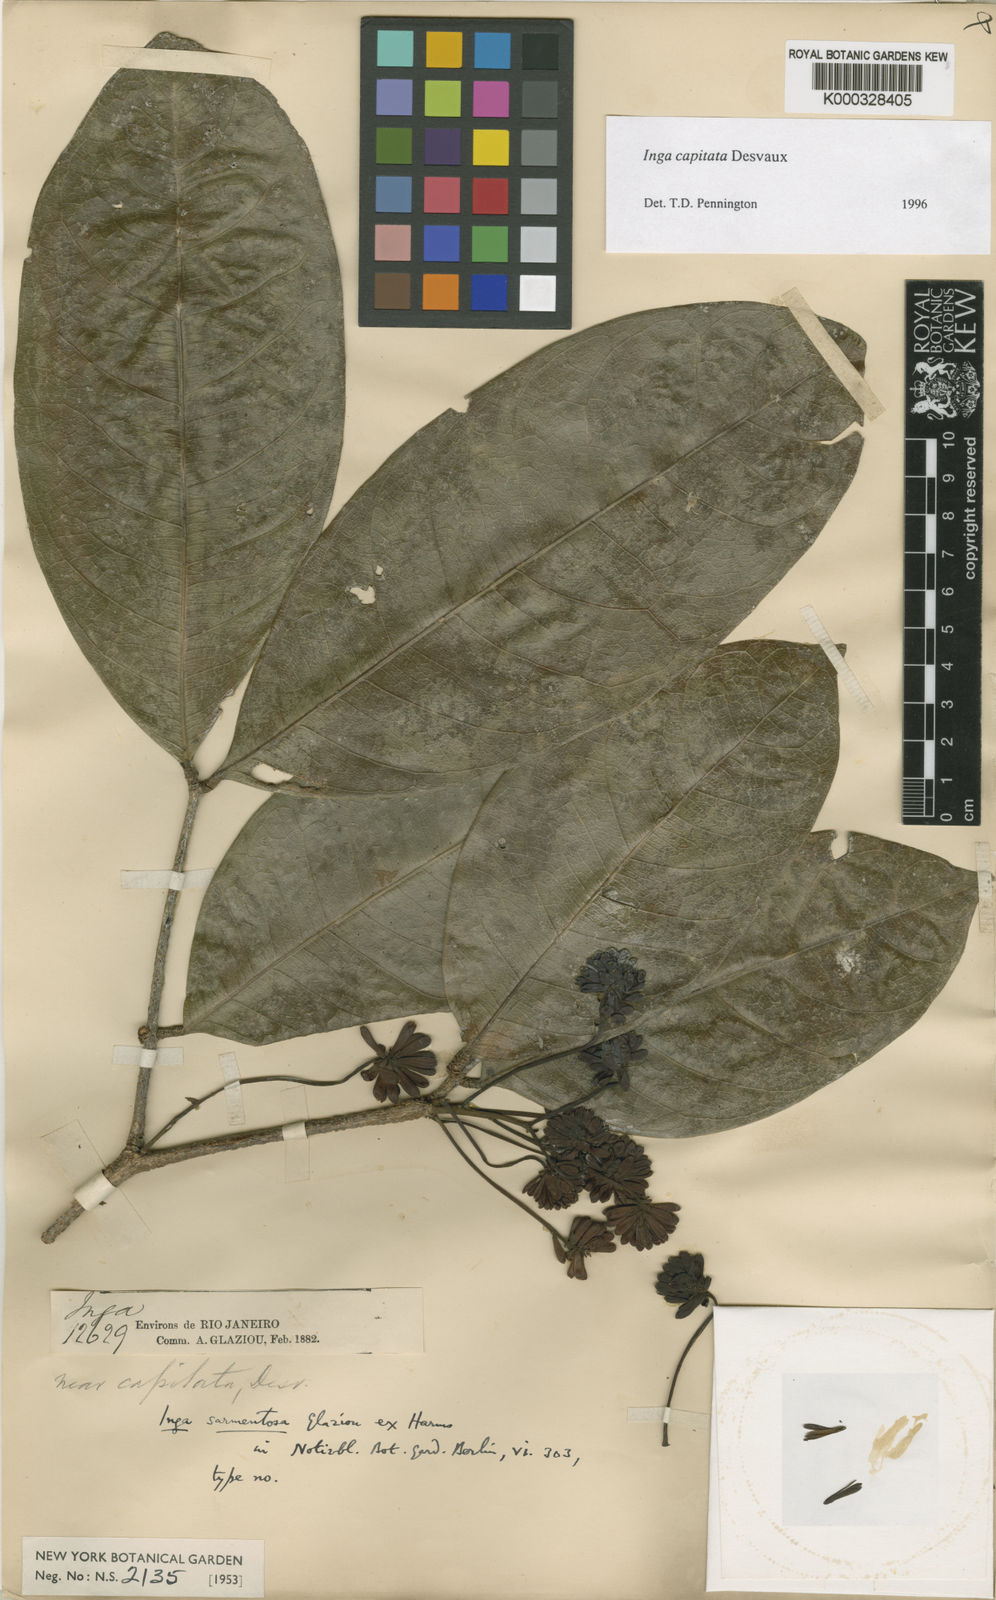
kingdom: Plantae
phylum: Tracheophyta
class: Magnoliopsida
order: Fabales
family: Fabaceae
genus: Inga
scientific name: Inga capitata
